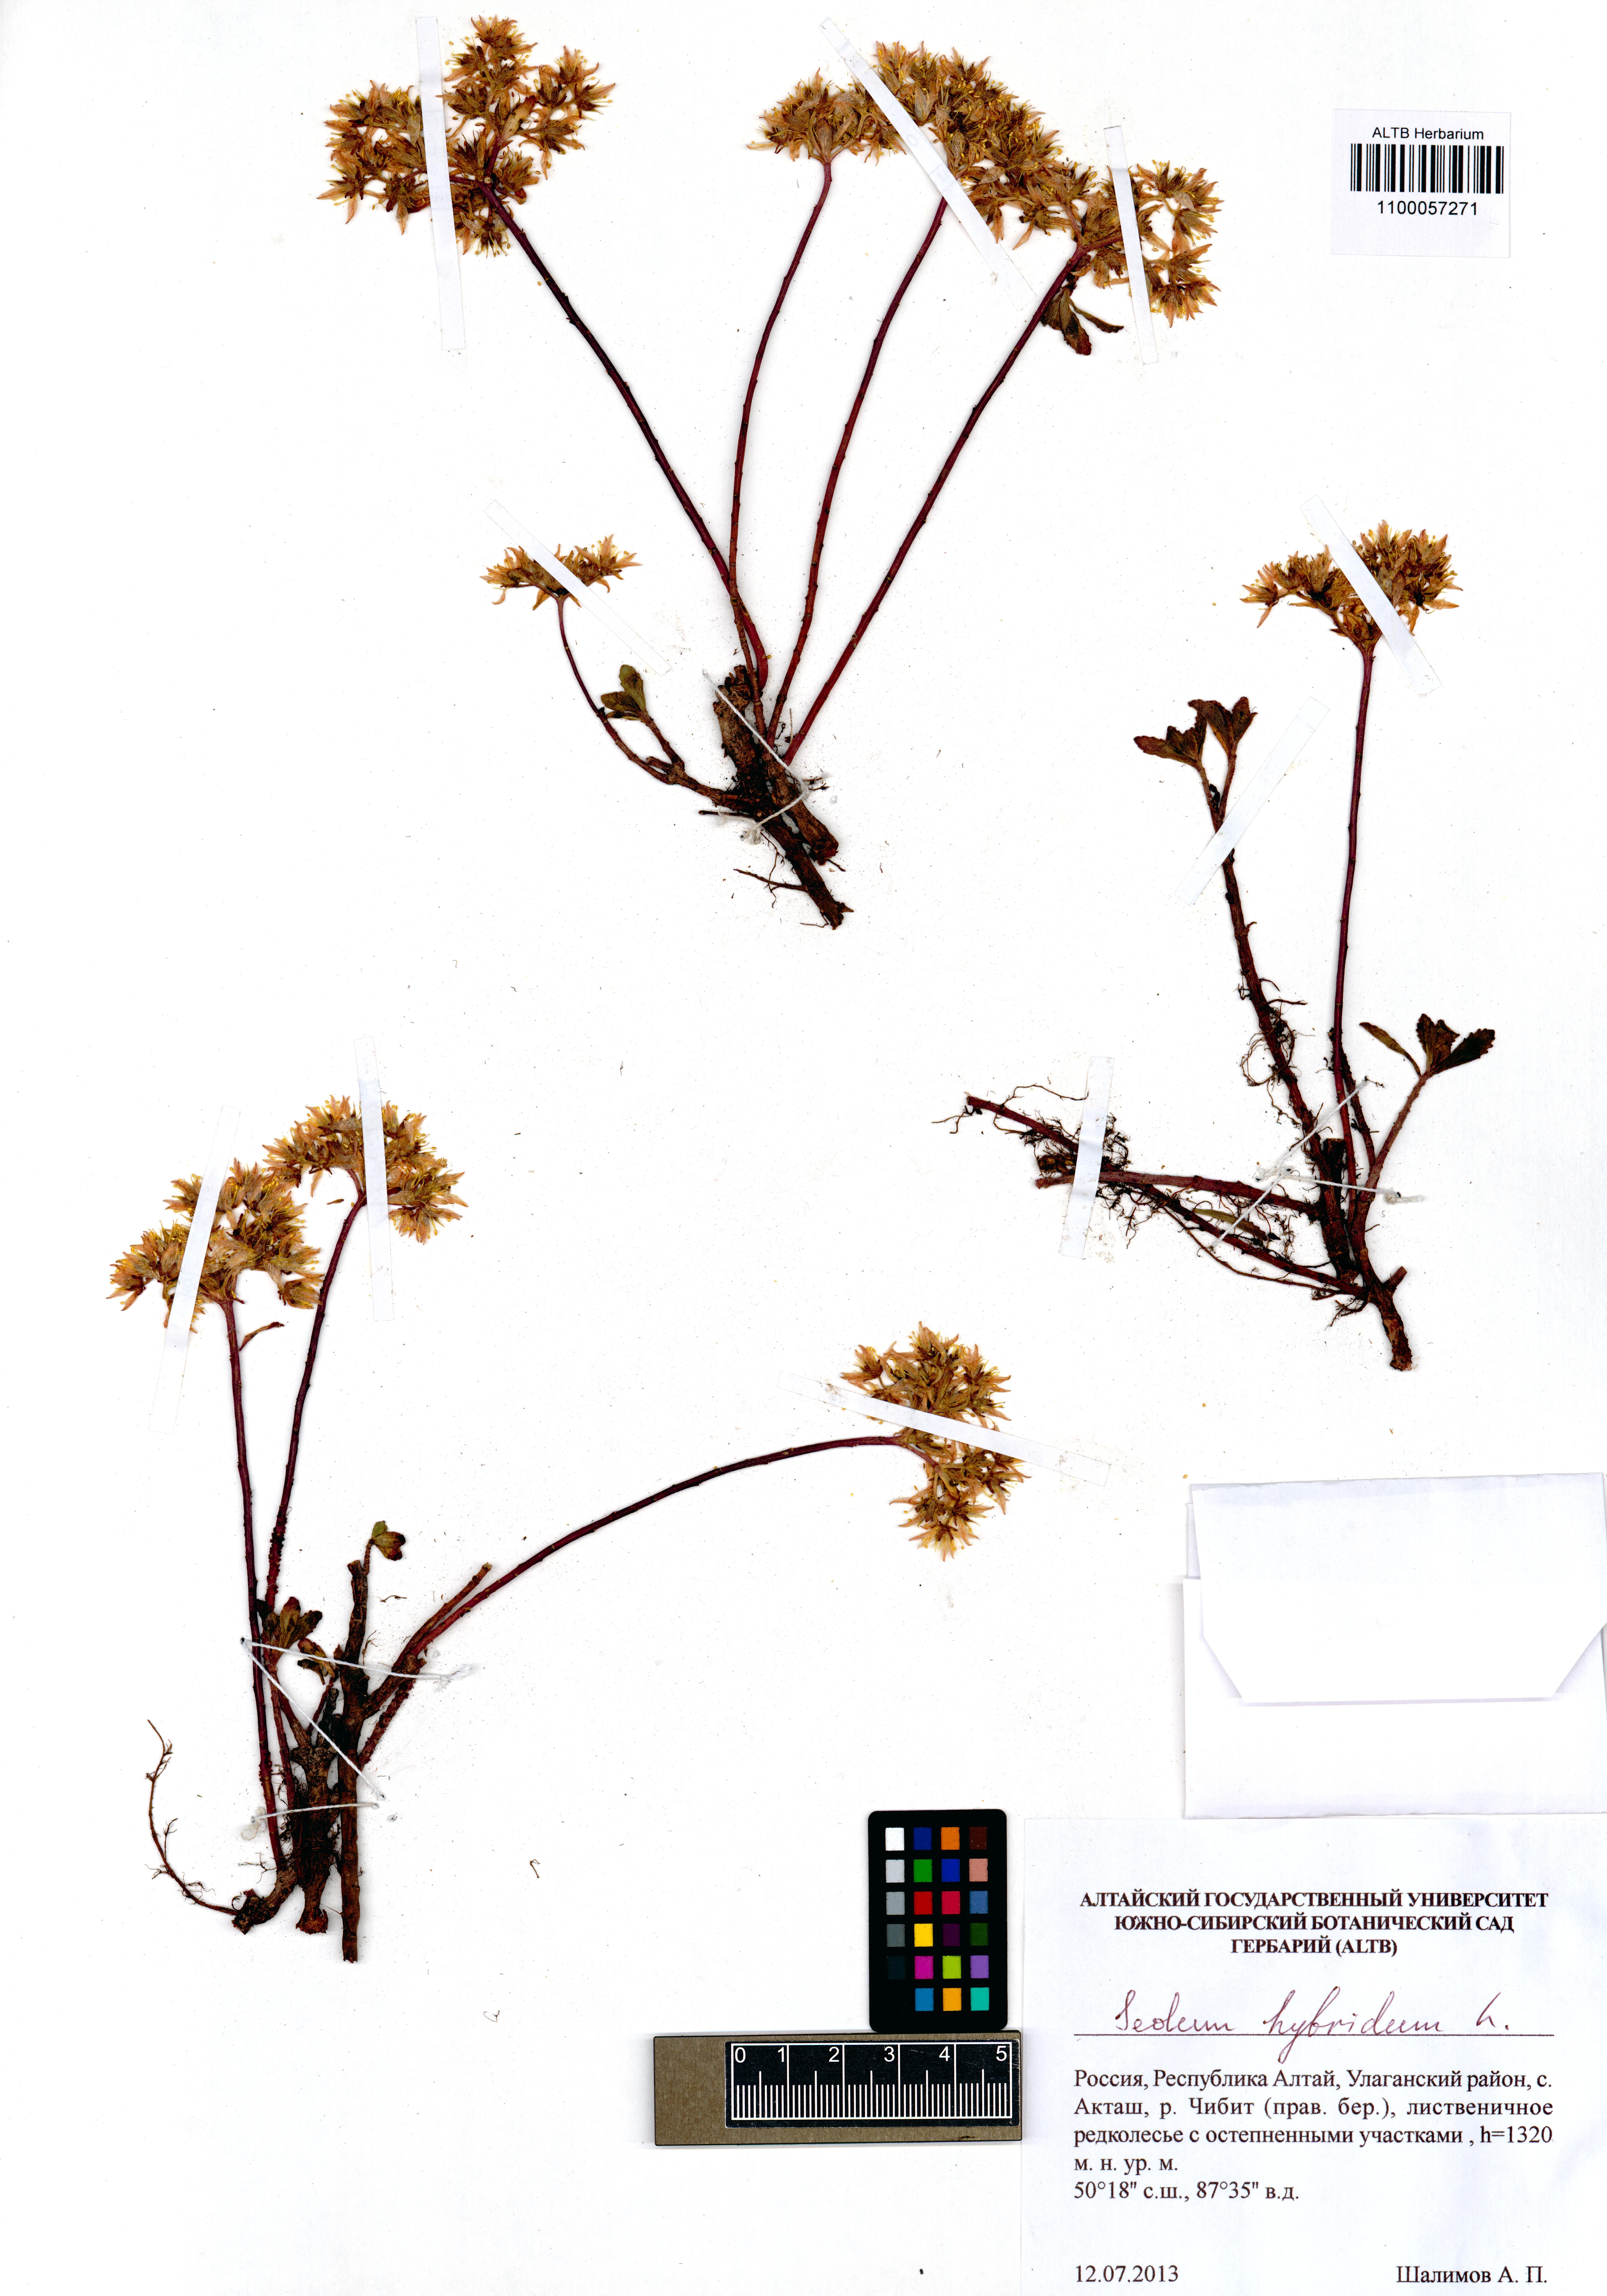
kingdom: Plantae
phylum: Tracheophyta
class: Magnoliopsida
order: Saxifragales
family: Crassulaceae
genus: Phedimus
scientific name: Phedimus hybridus
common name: Hybrid stonecrop
